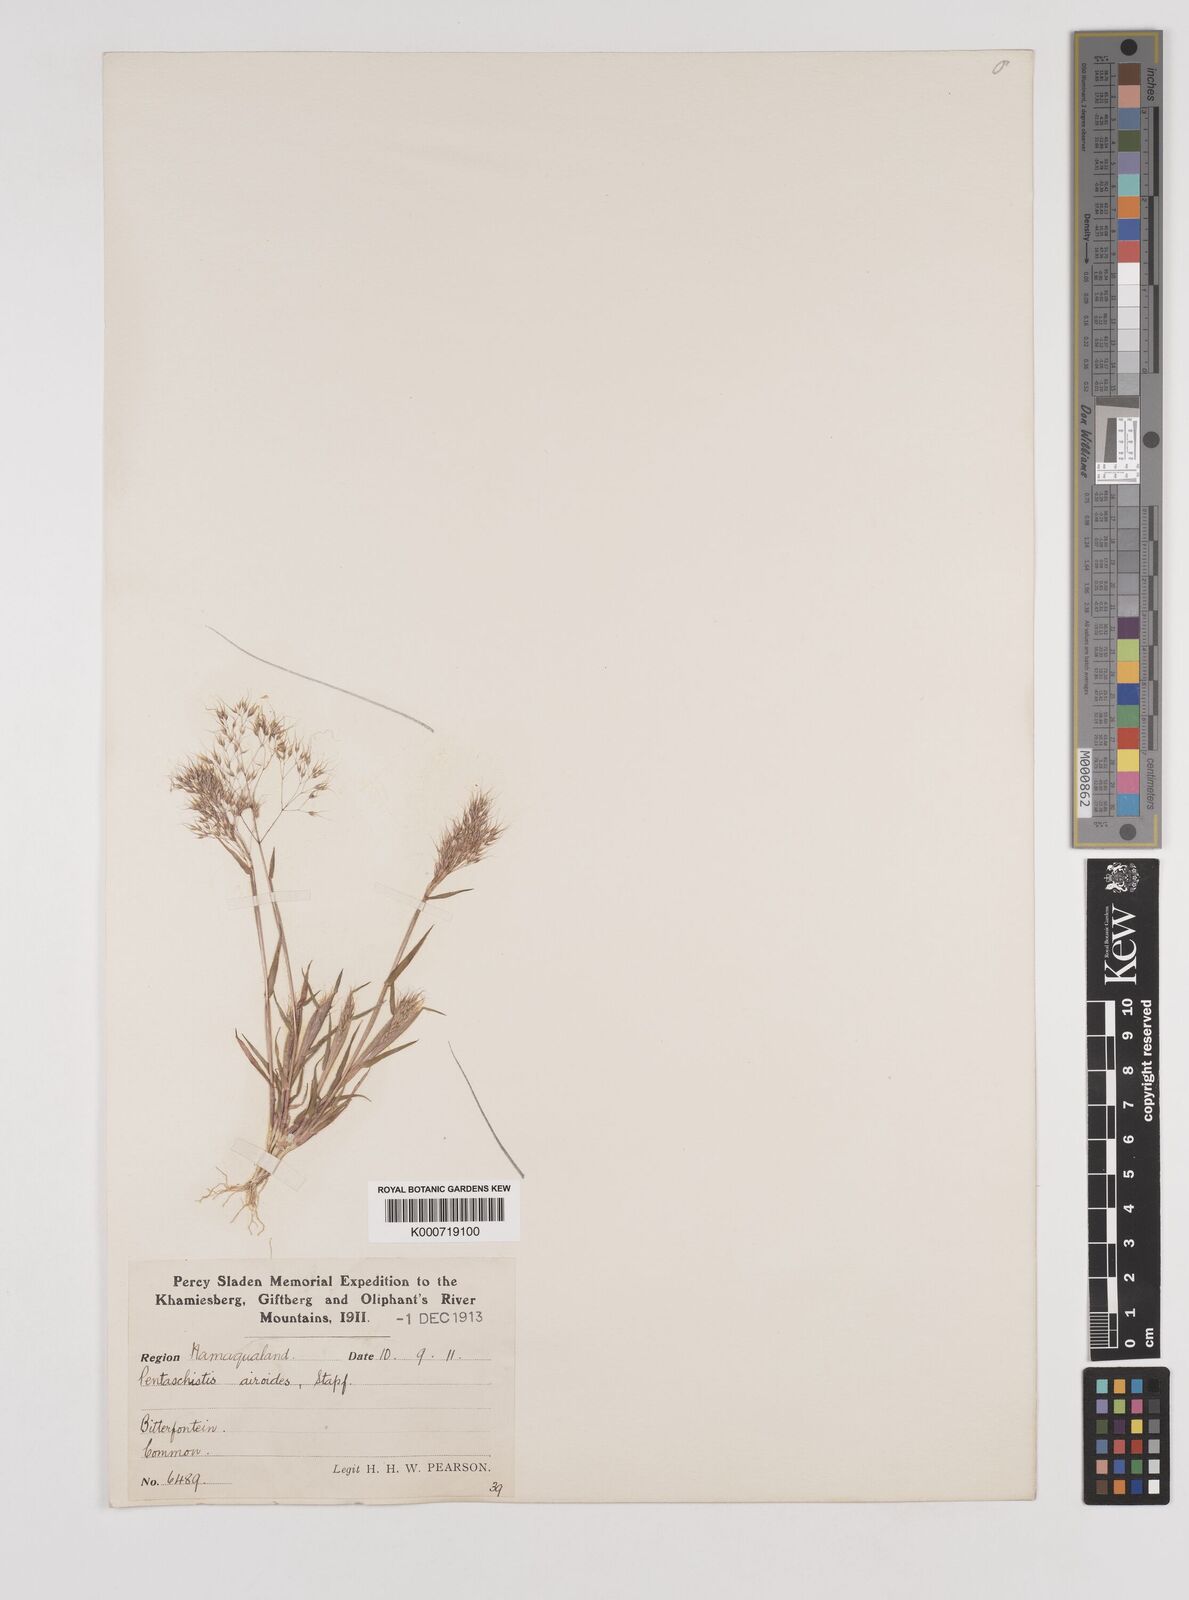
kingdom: Plantae
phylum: Tracheophyta
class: Liliopsida
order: Poales
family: Poaceae
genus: Pentameris
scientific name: Pentameris airoides
